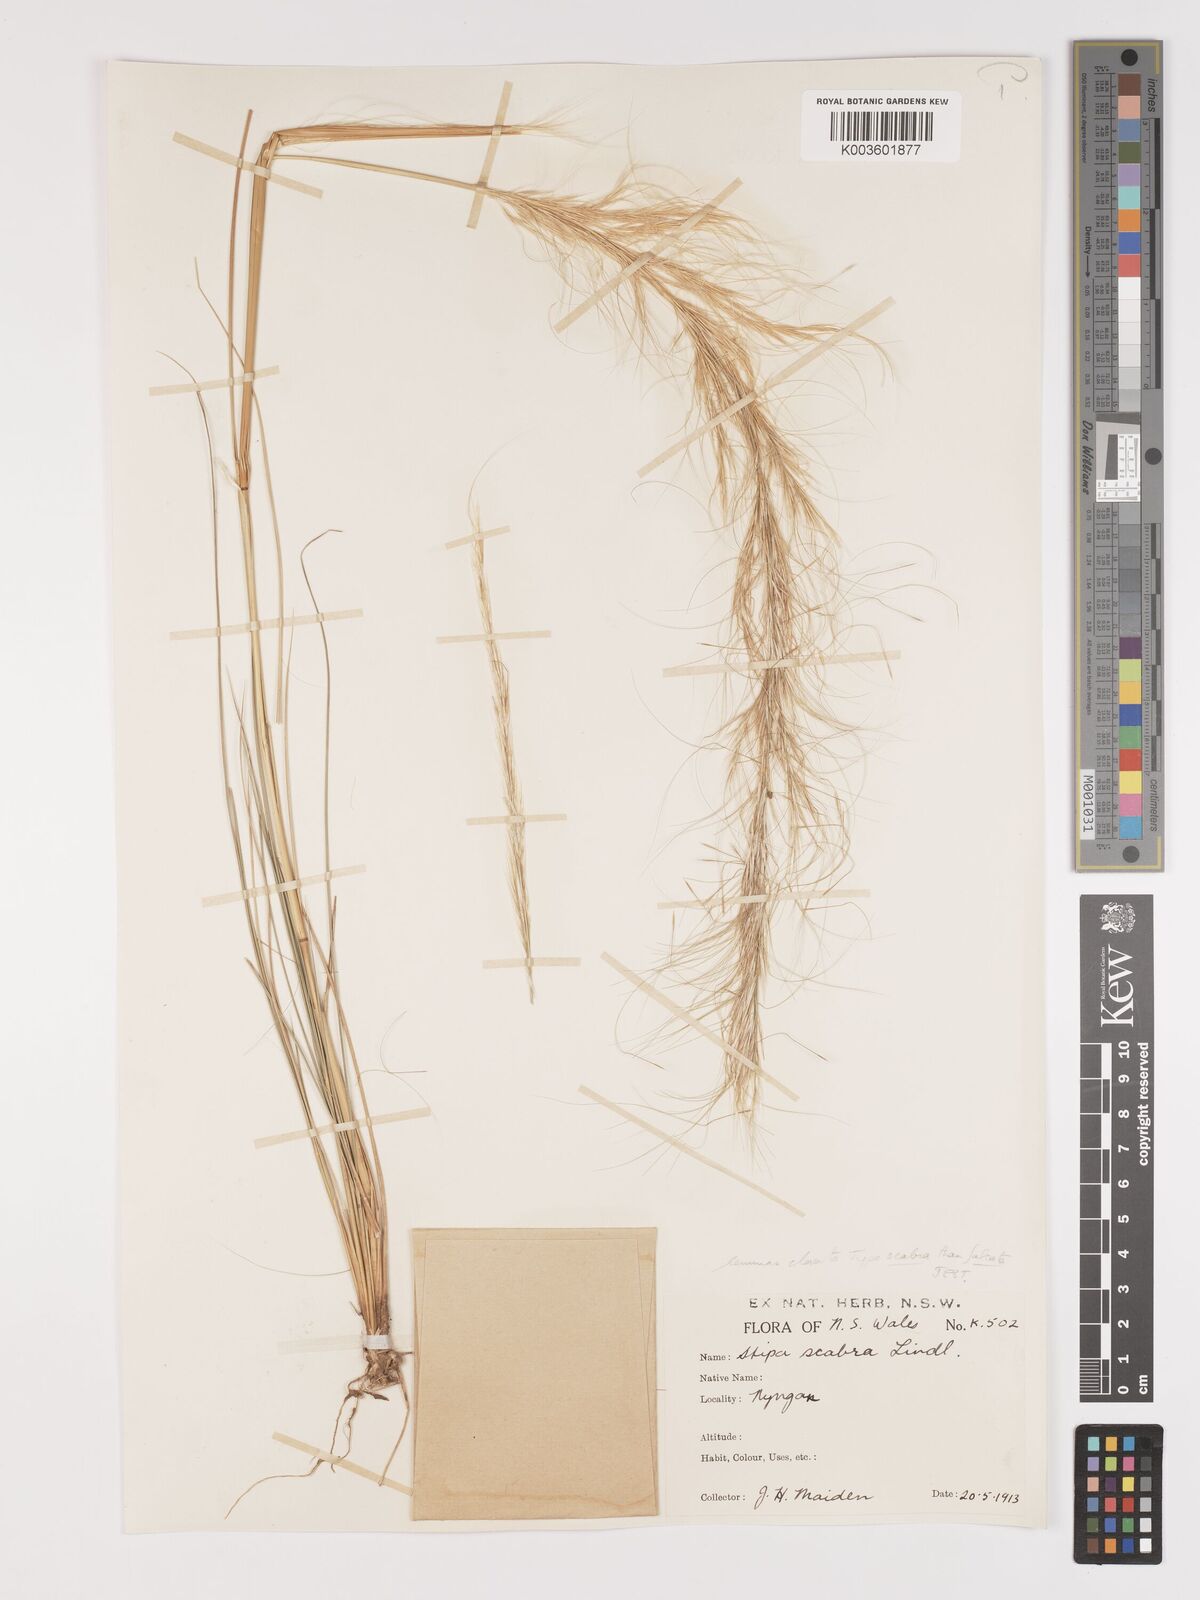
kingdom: Plantae
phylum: Tracheophyta
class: Liliopsida
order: Poales
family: Poaceae
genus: Austrostipa
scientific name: Austrostipa nitida
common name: Balcarra grass
